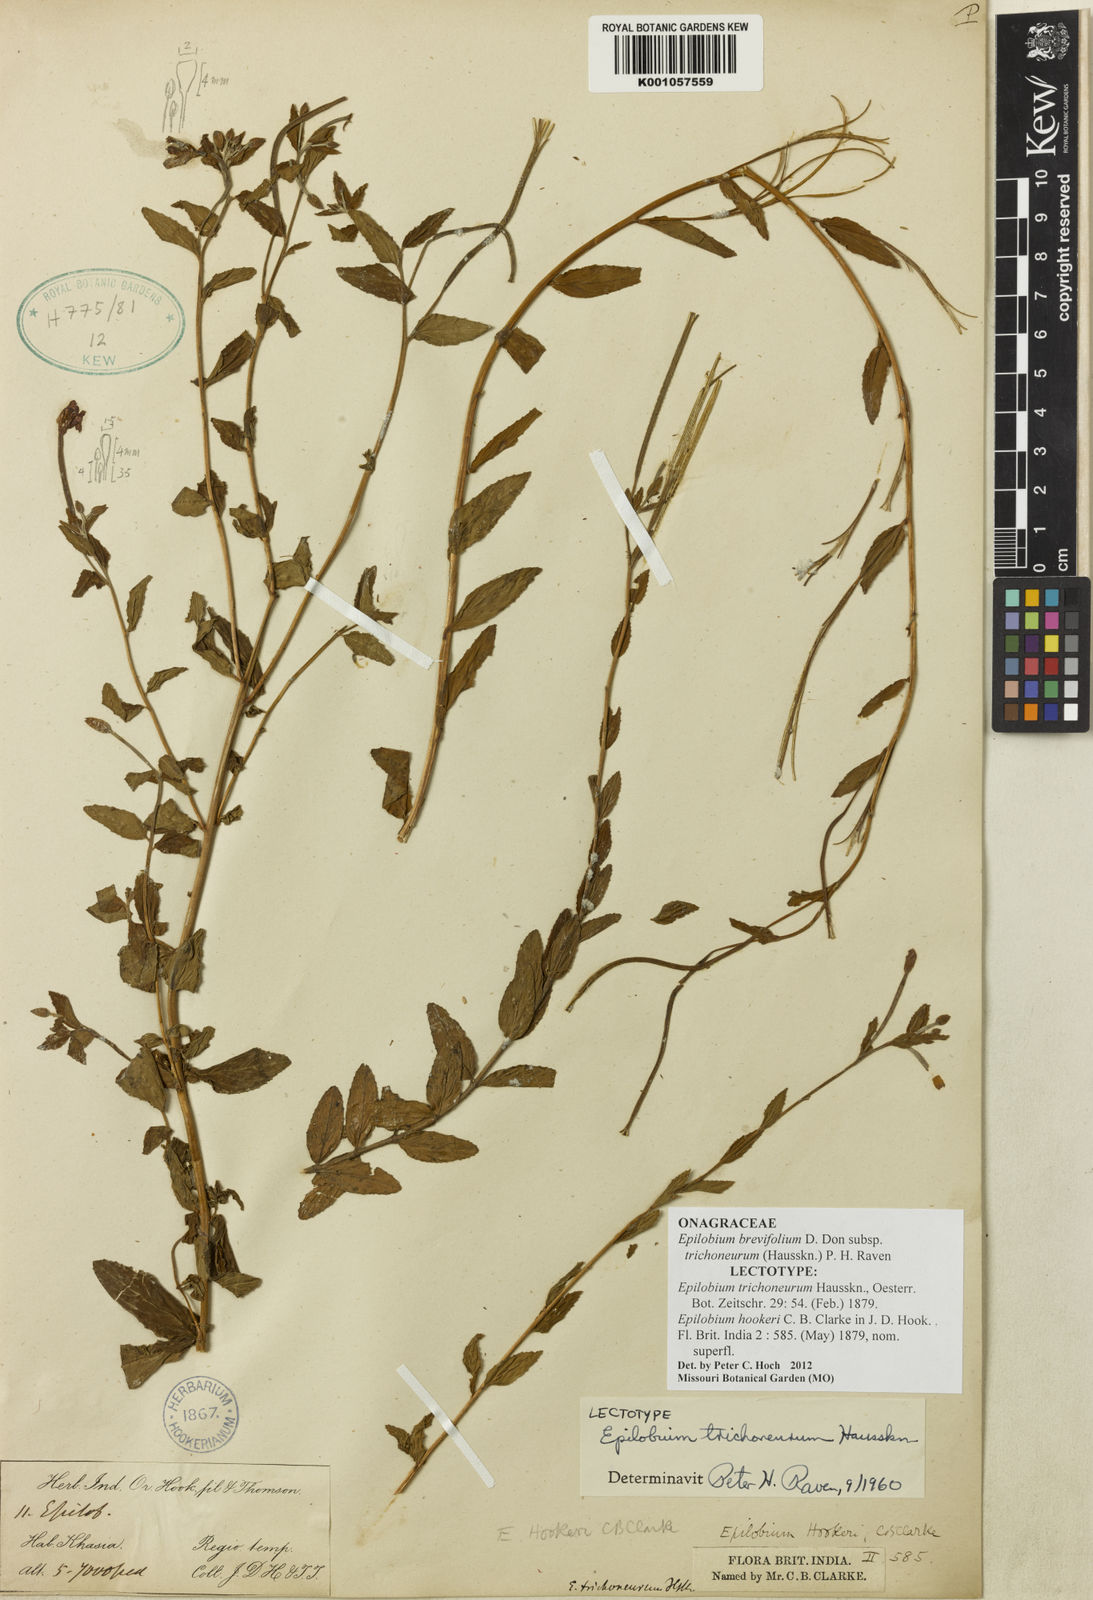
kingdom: Plantae
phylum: Tracheophyta
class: Magnoliopsida
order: Myrtales
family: Onagraceae
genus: Epilobium
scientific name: Epilobium brevifolium
